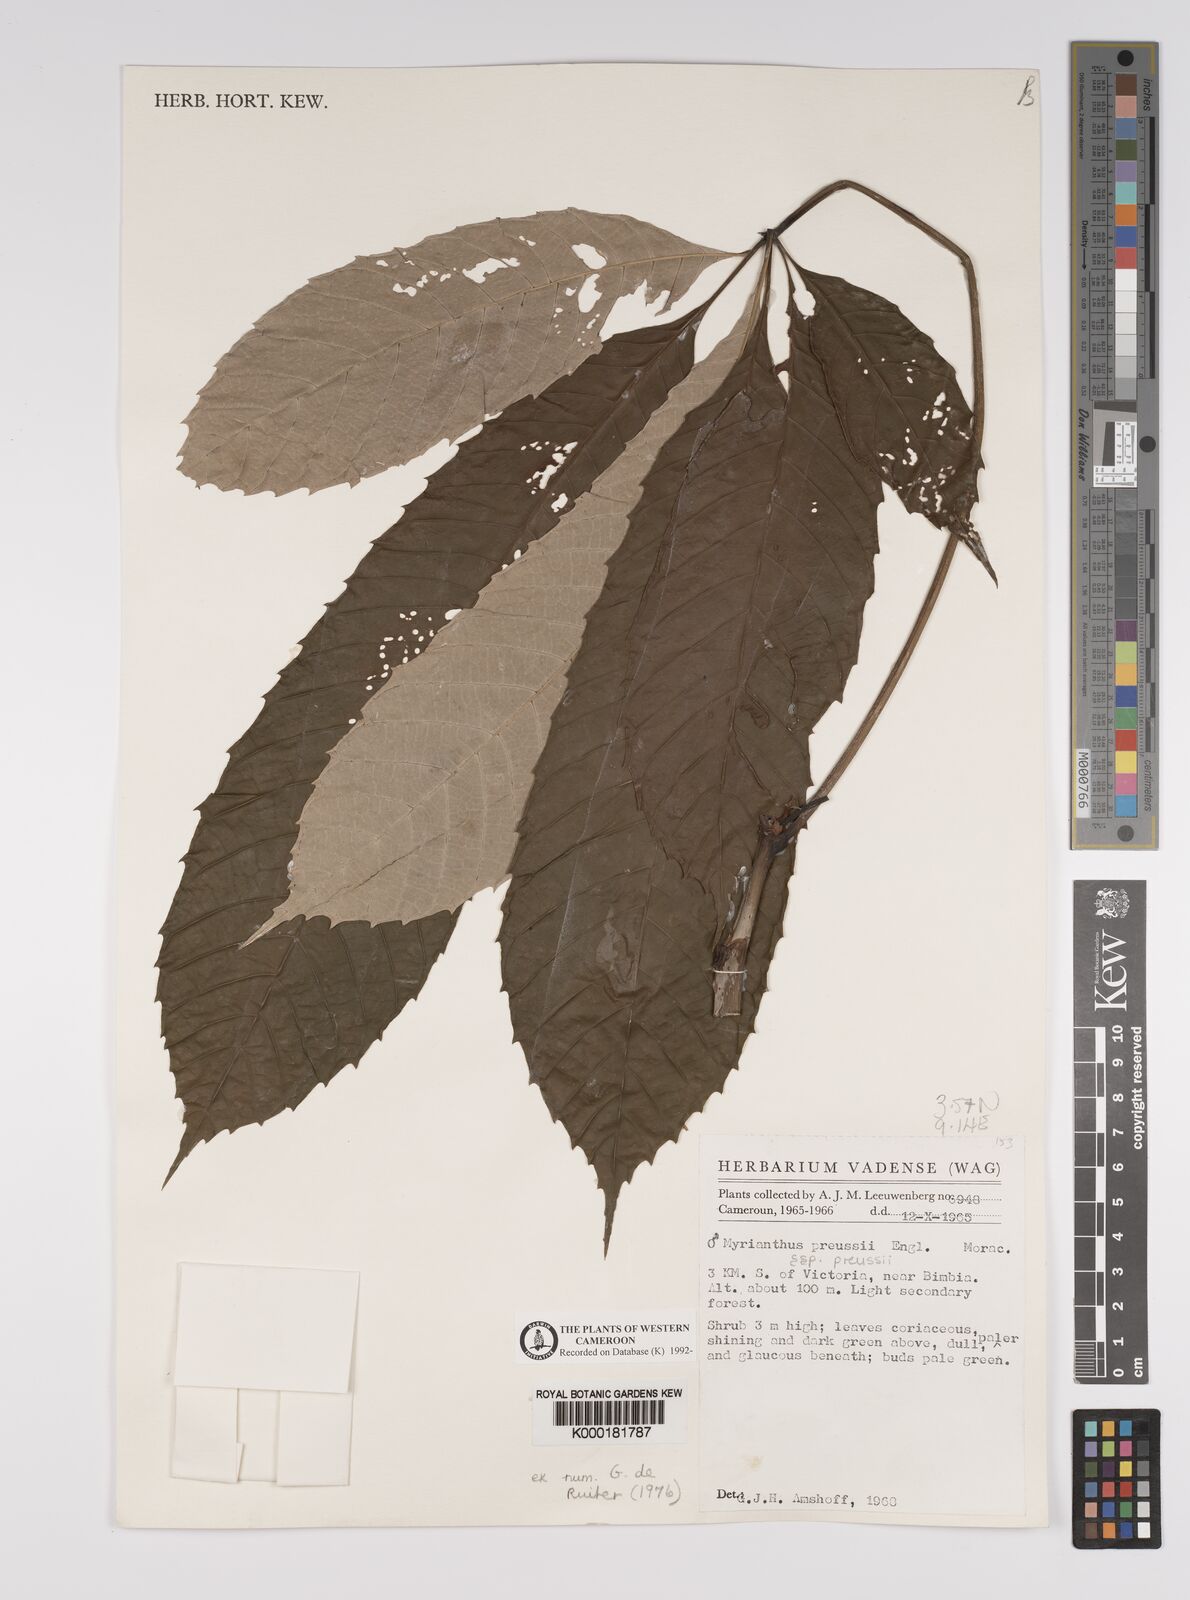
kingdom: Plantae
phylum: Tracheophyta
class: Magnoliopsida
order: Rosales
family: Urticaceae
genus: Myrianthus
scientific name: Myrianthus preussii
